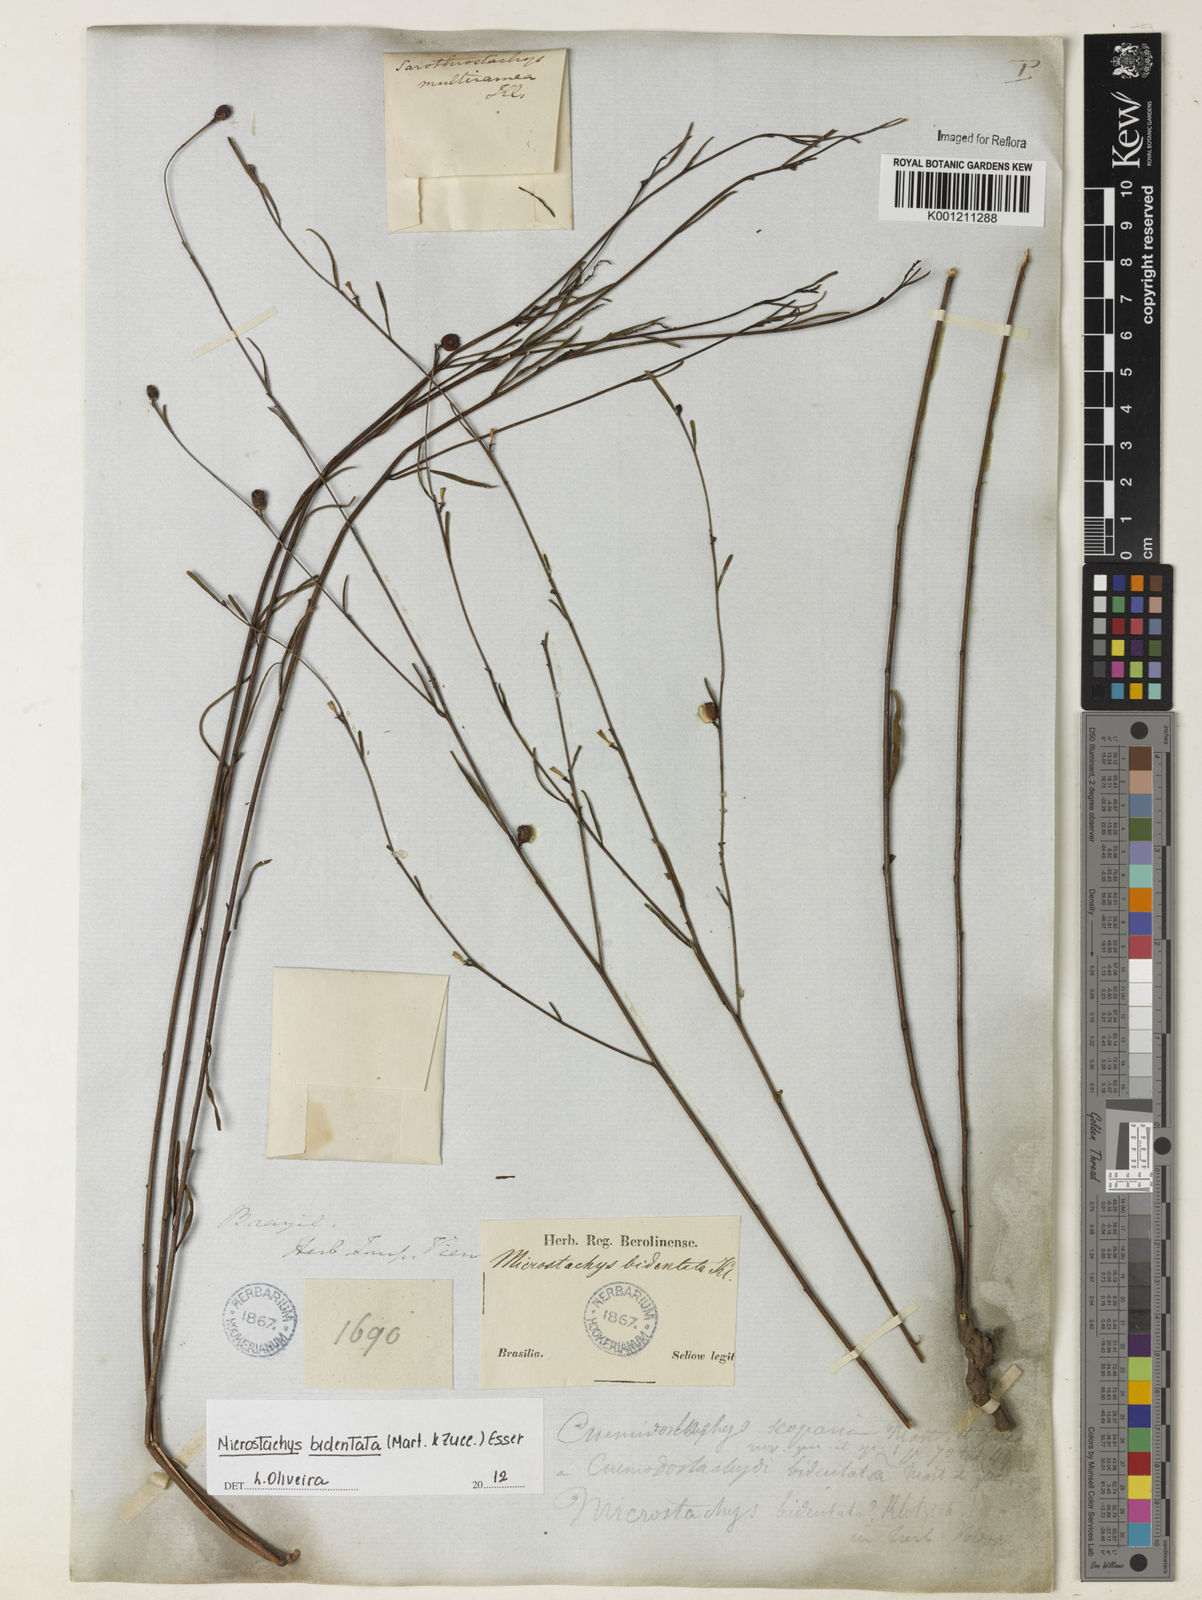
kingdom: Plantae
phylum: Tracheophyta
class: Magnoliopsida
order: Malpighiales
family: Euphorbiaceae
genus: Microstachys
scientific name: Microstachys bidentata
